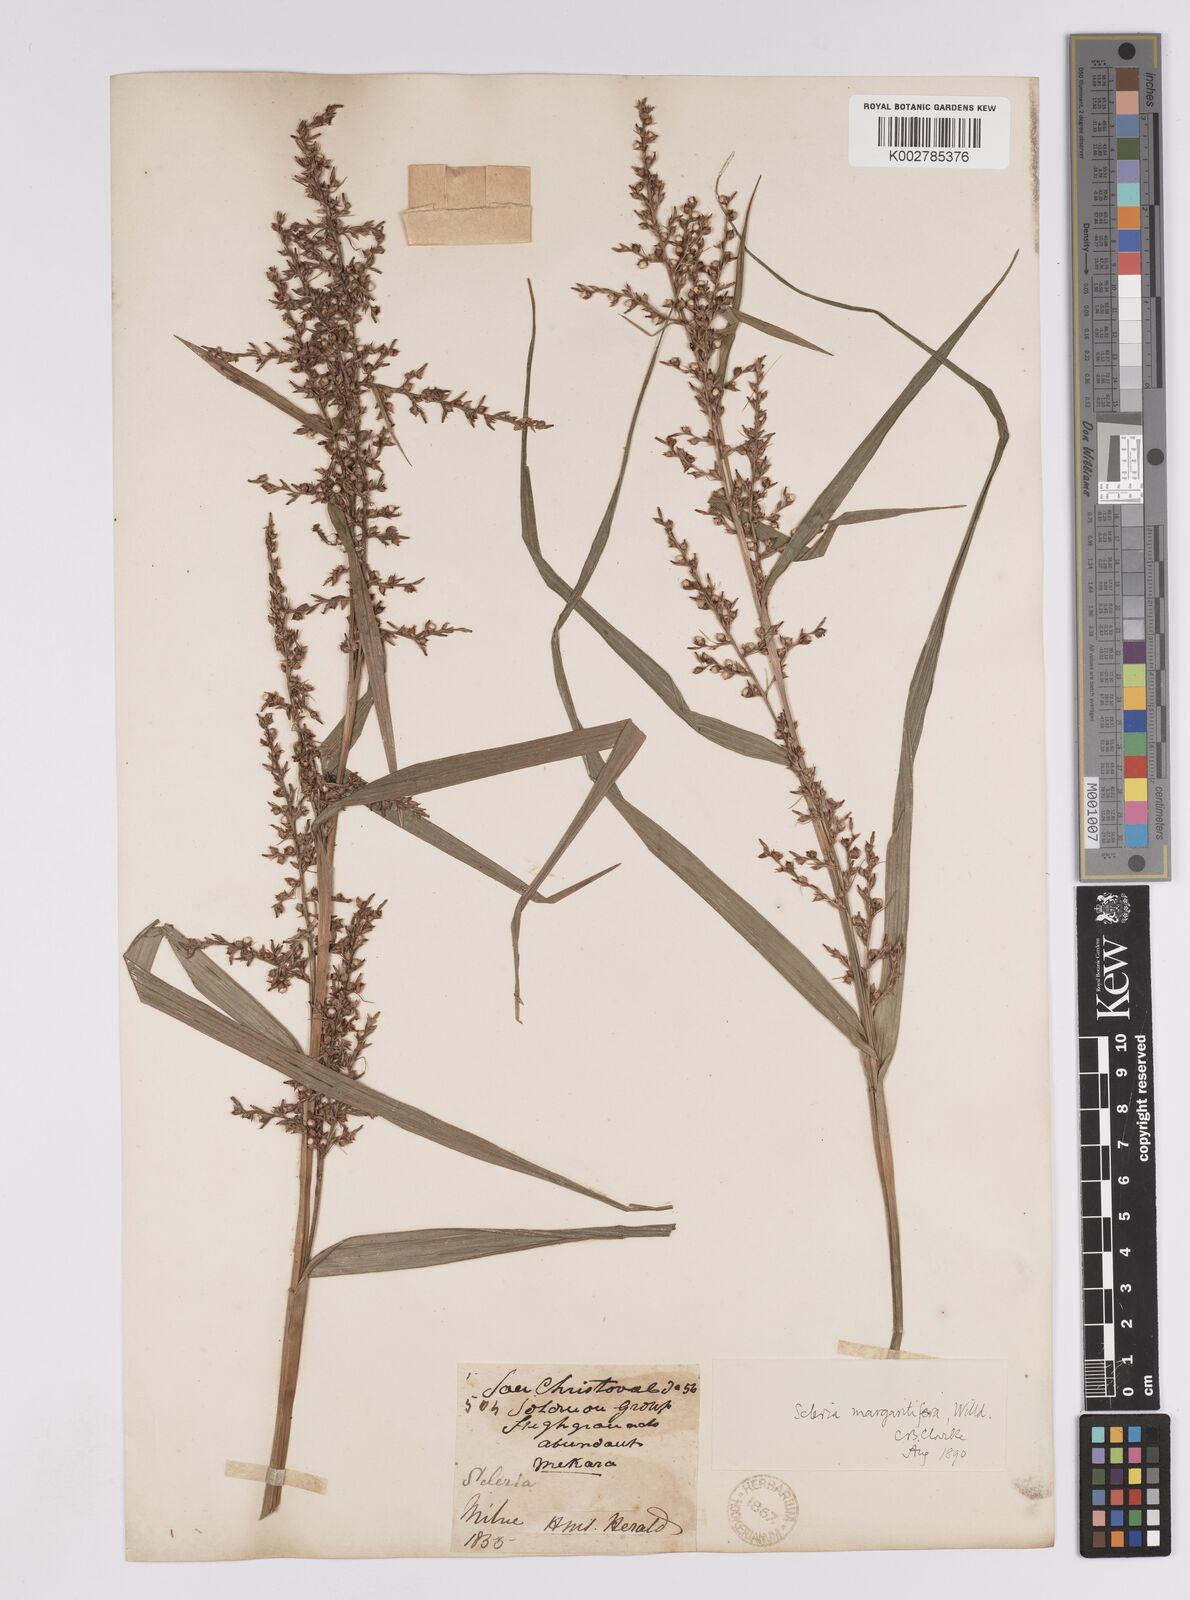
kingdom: Plantae
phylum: Tracheophyta
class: Liliopsida
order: Poales
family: Cyperaceae
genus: Scleria
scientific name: Scleria polycarpa
